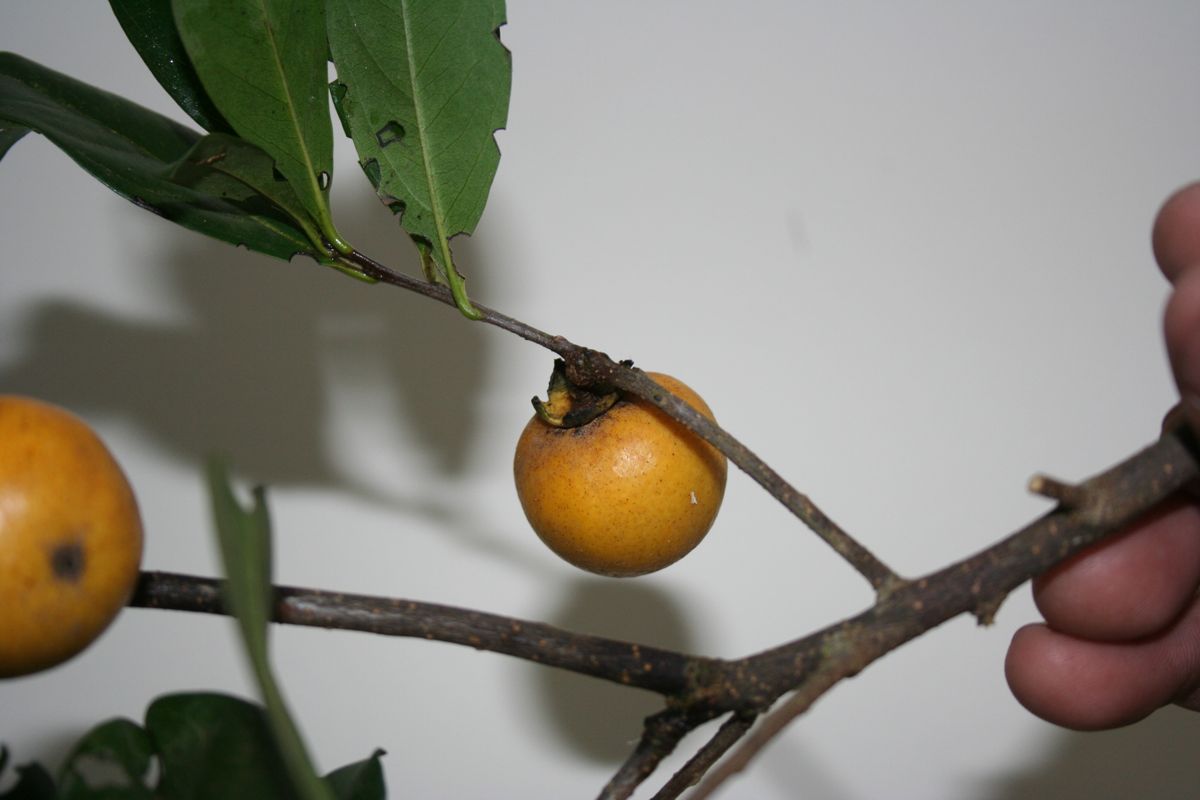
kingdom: Plantae
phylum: Tracheophyta
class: Magnoliopsida
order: Ericales
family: Ebenaceae
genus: Diospyros
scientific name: Diospyros johnstoniana
